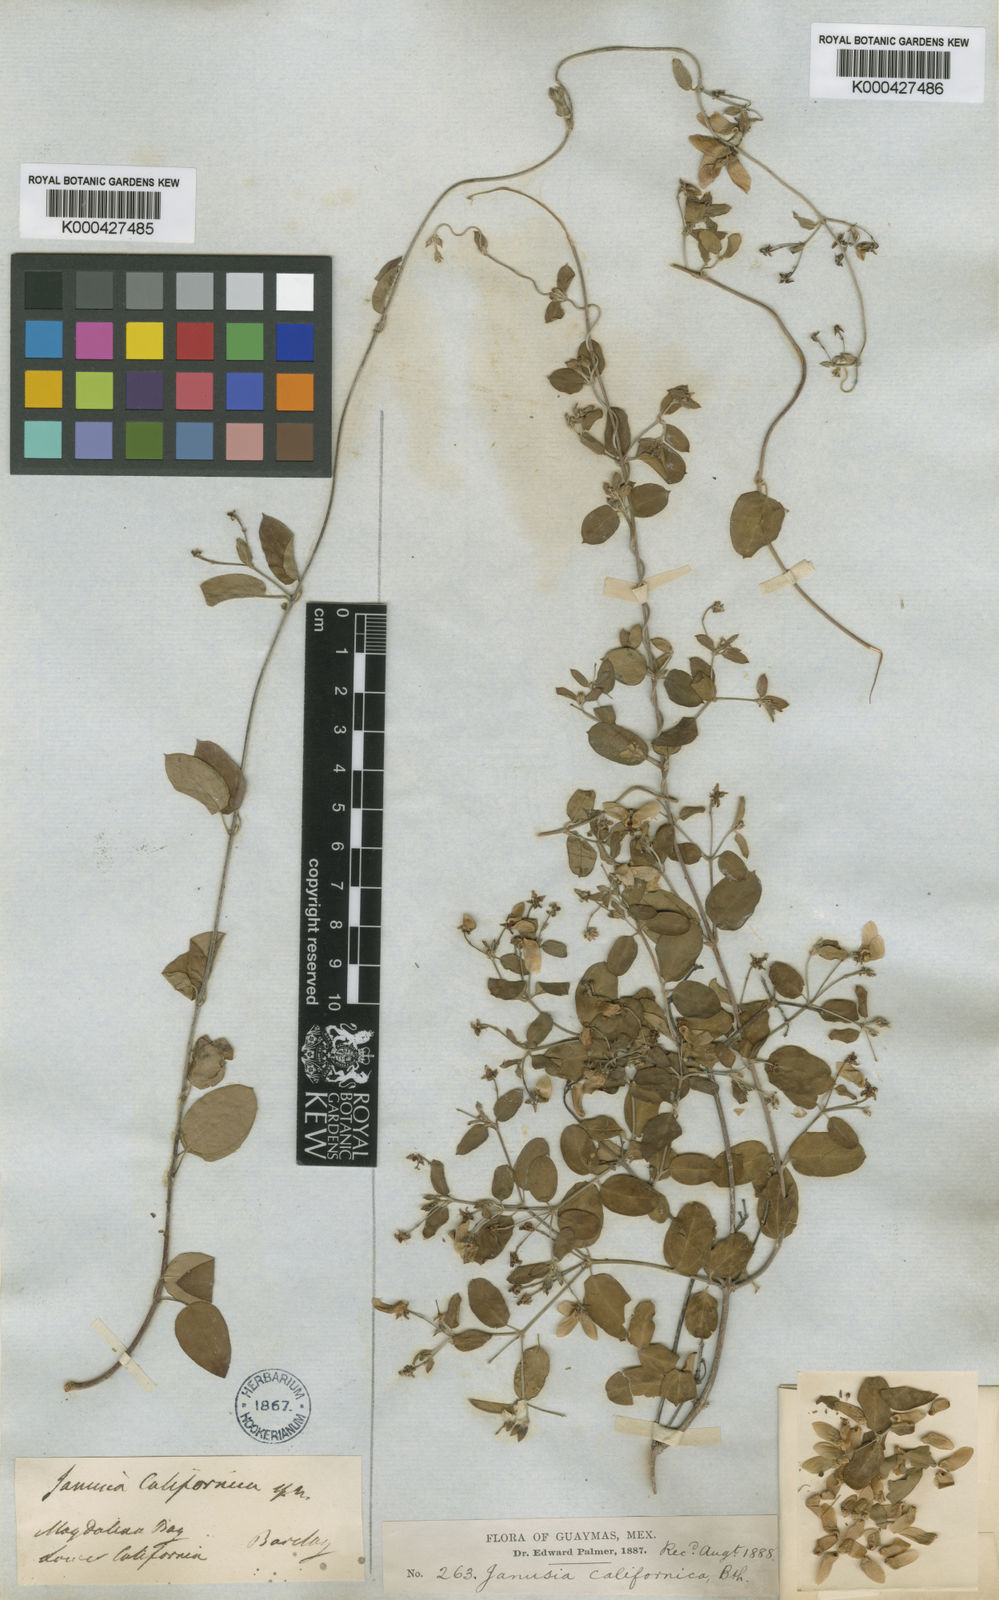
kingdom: Plantae
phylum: Tracheophyta
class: Magnoliopsida
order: Malpighiales
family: Malpighiaceae
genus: Cottsia
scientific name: Cottsia californica
